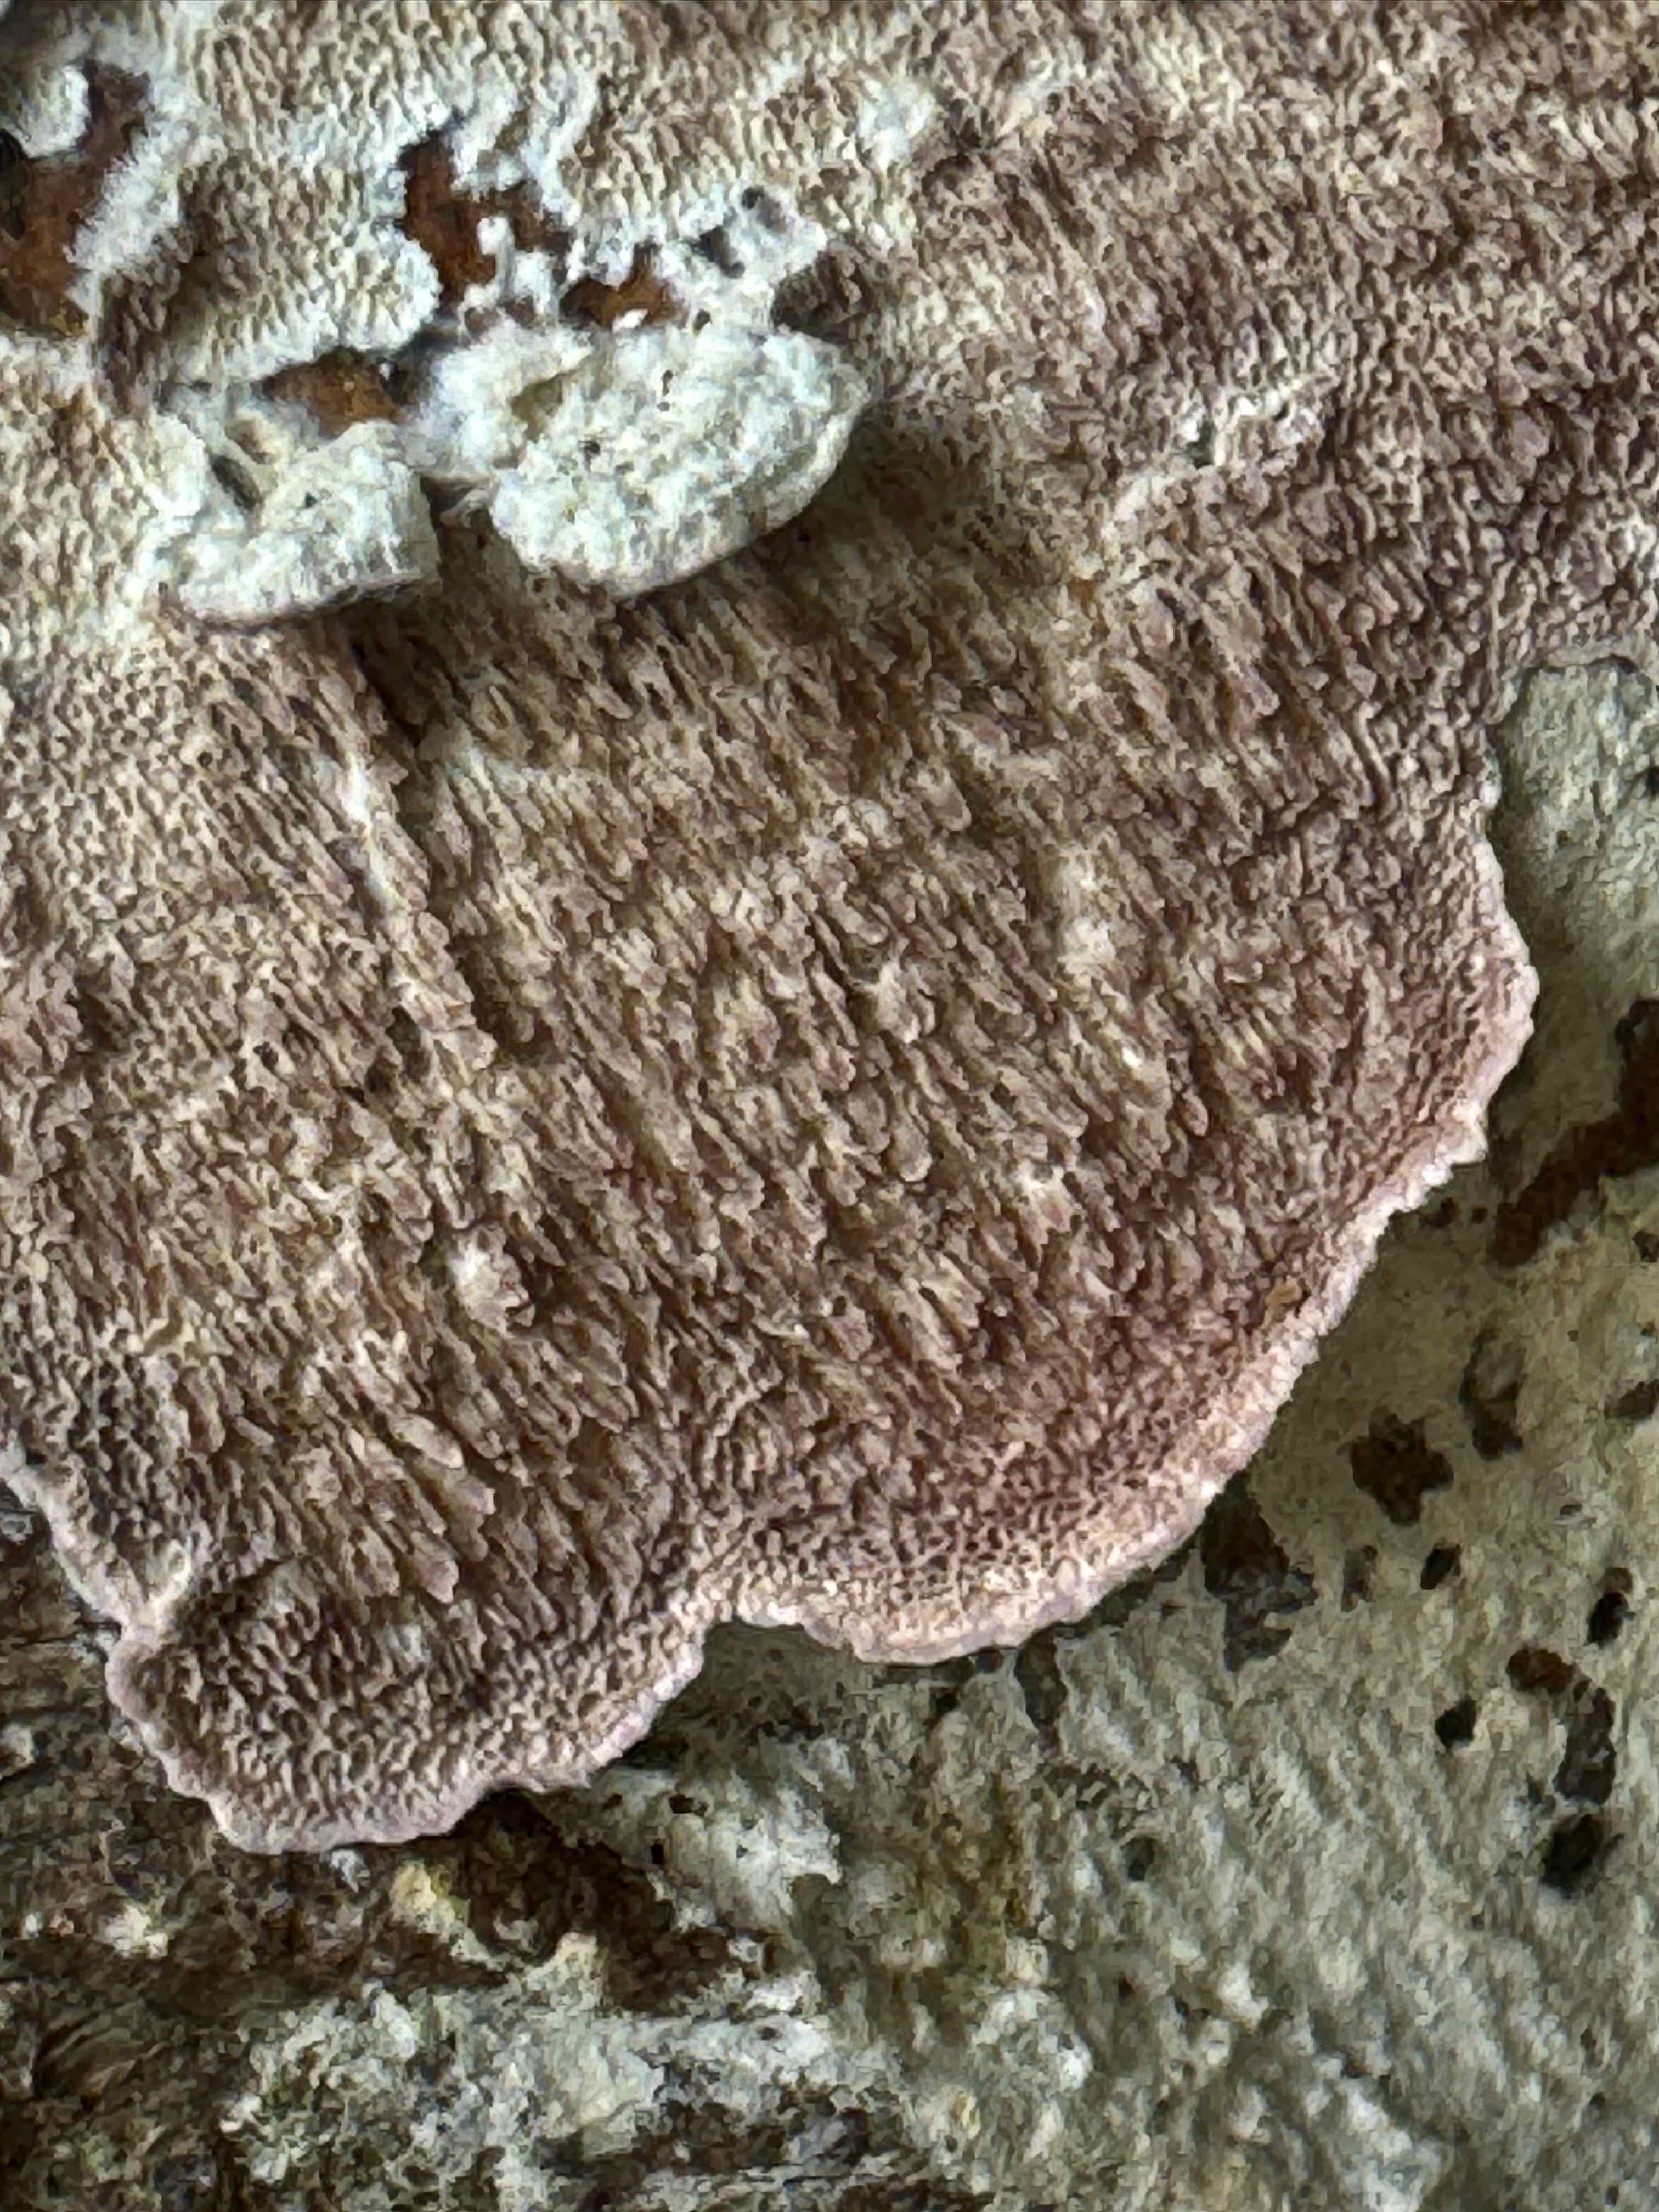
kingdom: Fungi
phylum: Basidiomycota
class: Agaricomycetes
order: Hymenochaetales
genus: Trichaptum
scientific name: Trichaptum abietinum
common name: almindelig violporesvamp
